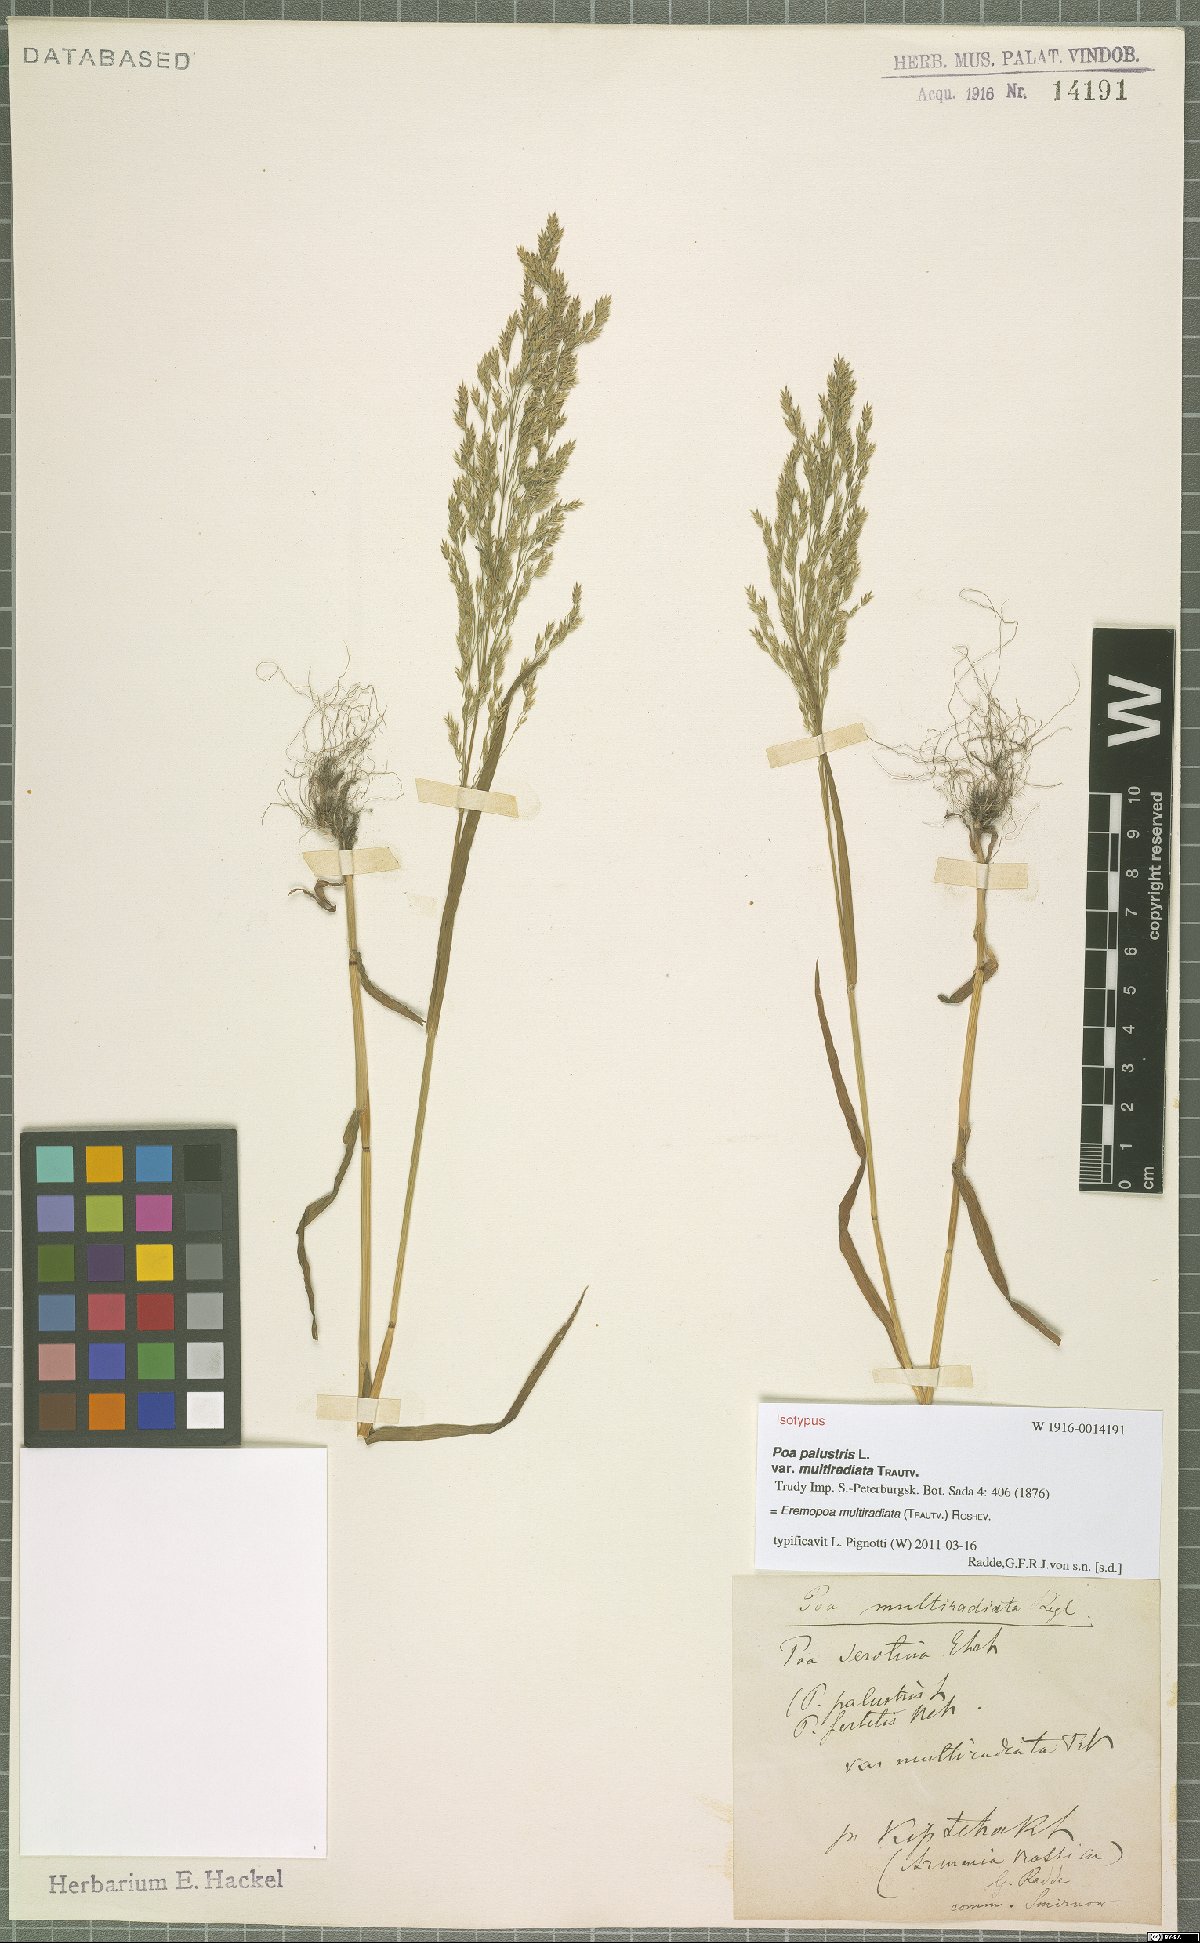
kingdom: Plantae
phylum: Tracheophyta
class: Liliopsida
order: Poales
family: Poaceae
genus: Poa
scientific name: Poa persica
